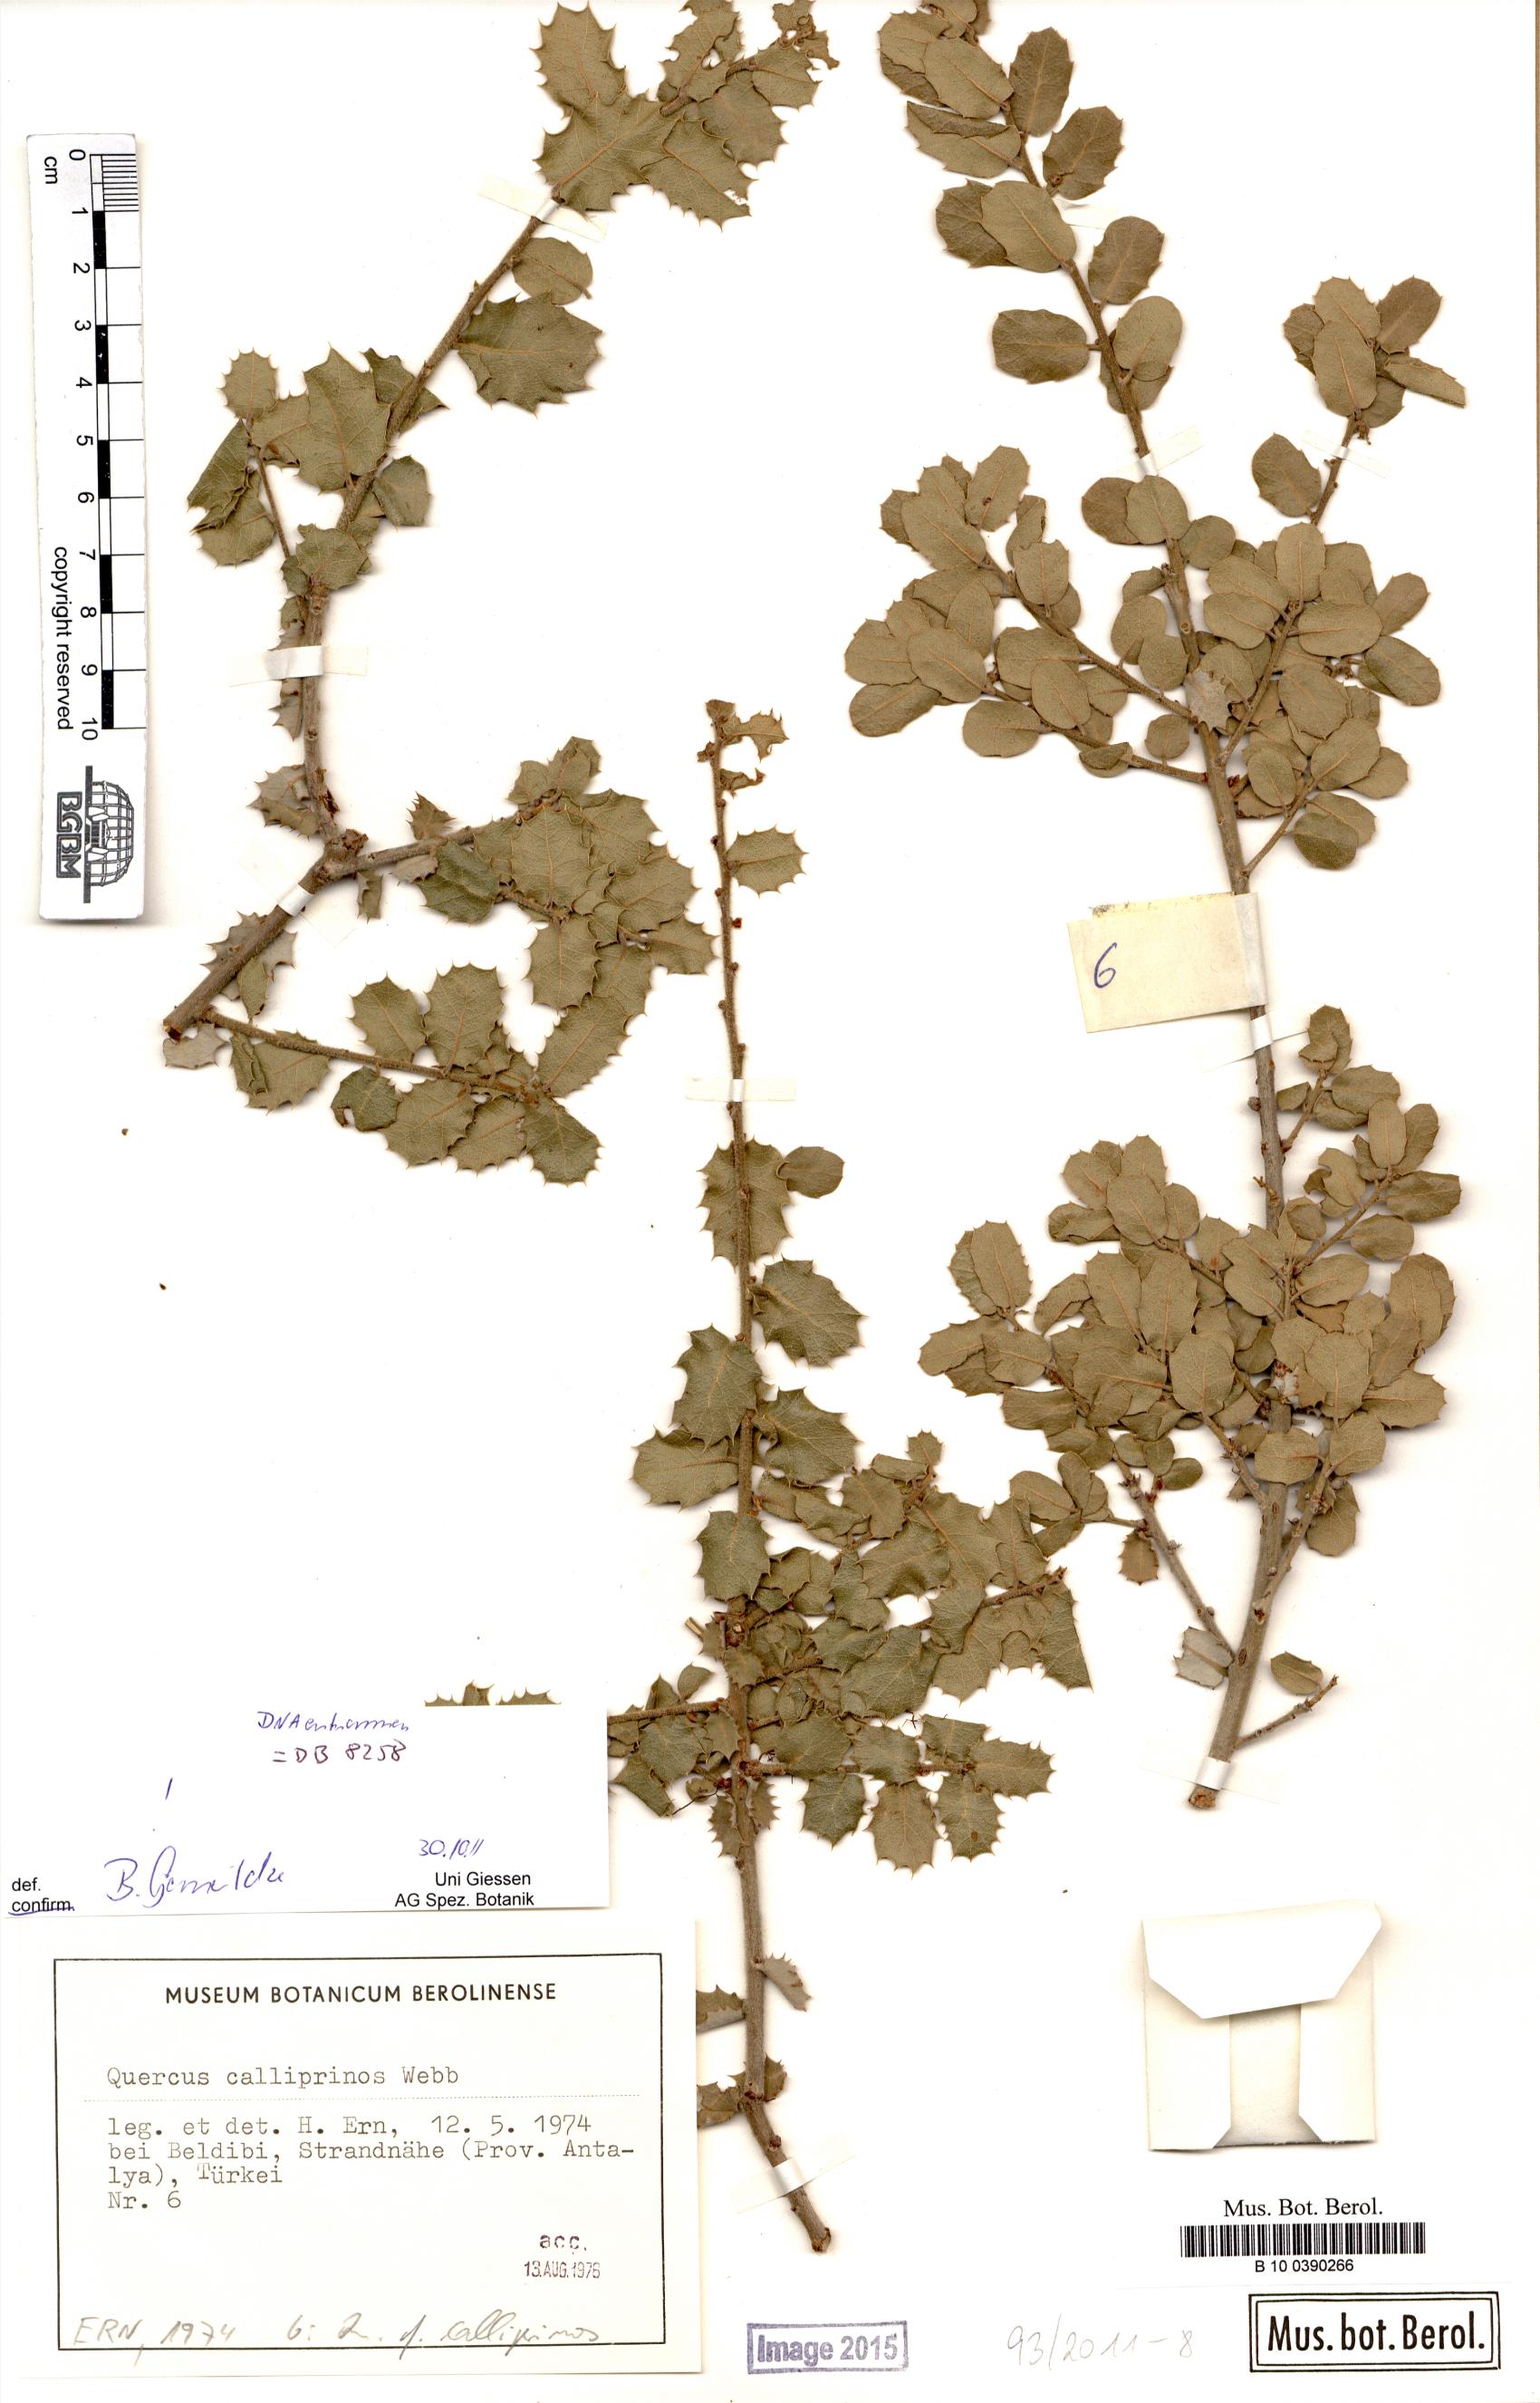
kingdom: Plantae
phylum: Tracheophyta
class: Magnoliopsida
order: Fagales
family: Fagaceae
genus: Quercus
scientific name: Quercus coccifera
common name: Kermes oak
